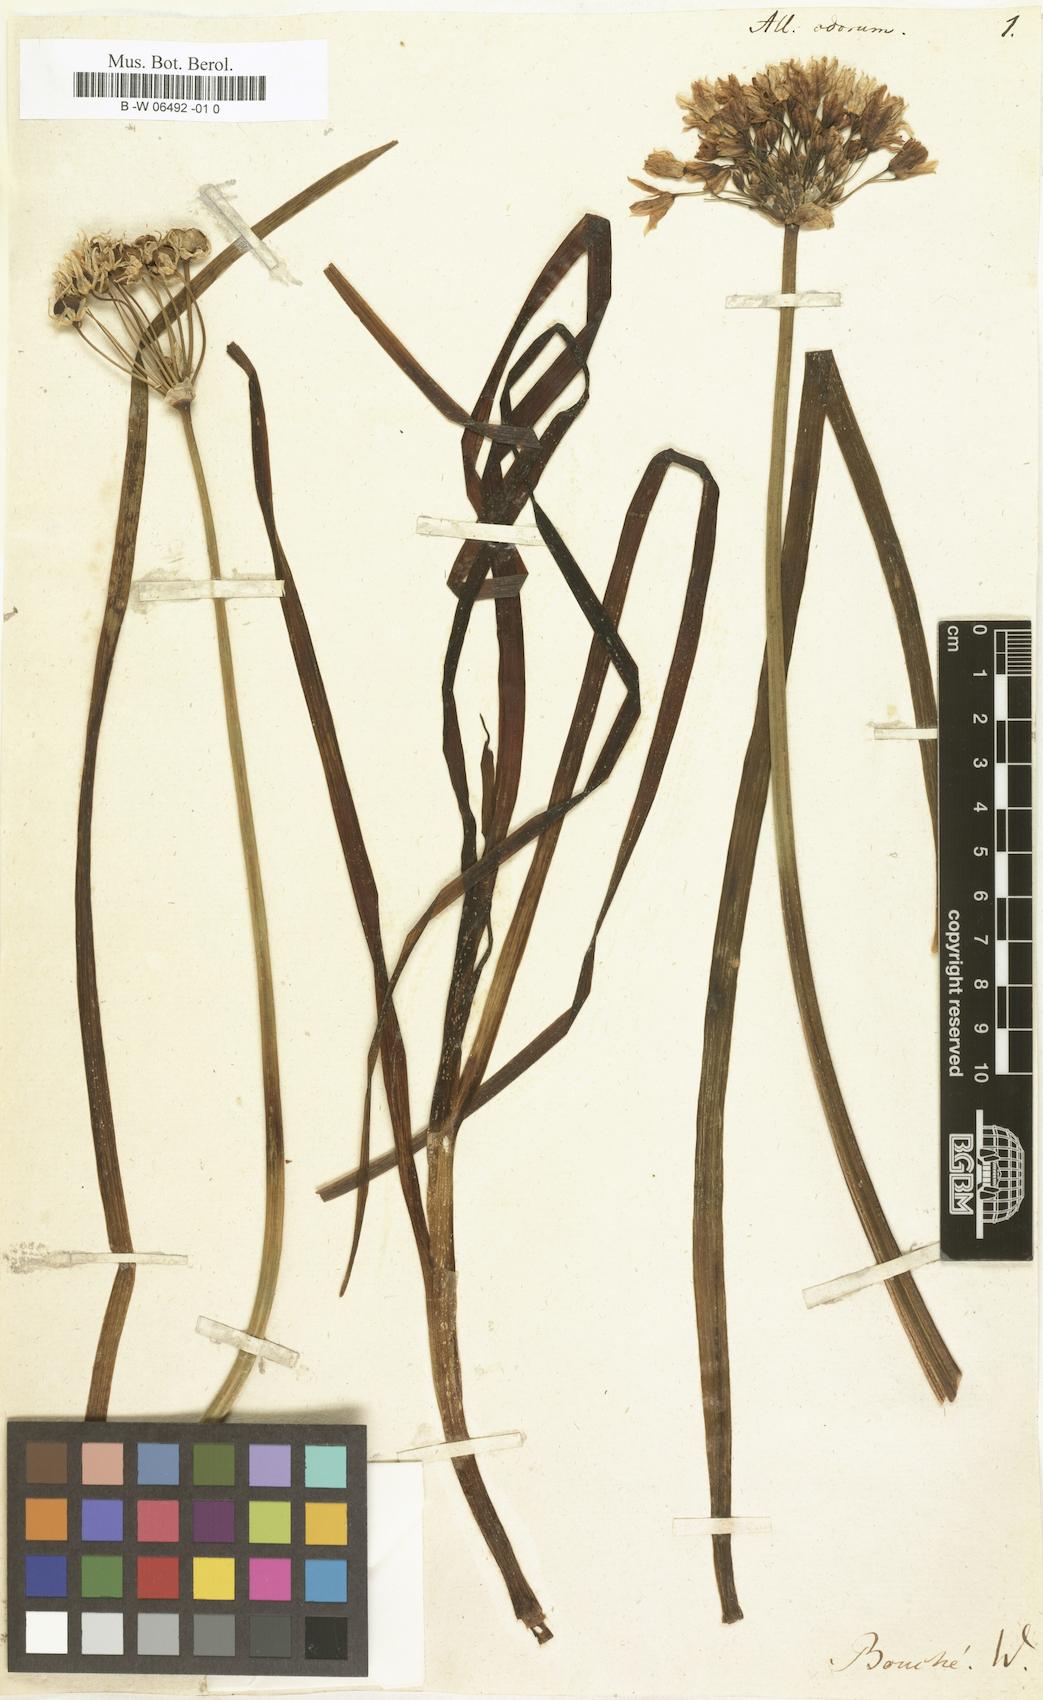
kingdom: Plantae
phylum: Tracheophyta
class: Liliopsida
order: Asparagales
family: Amaryllidaceae
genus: Allium
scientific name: Allium odorum
